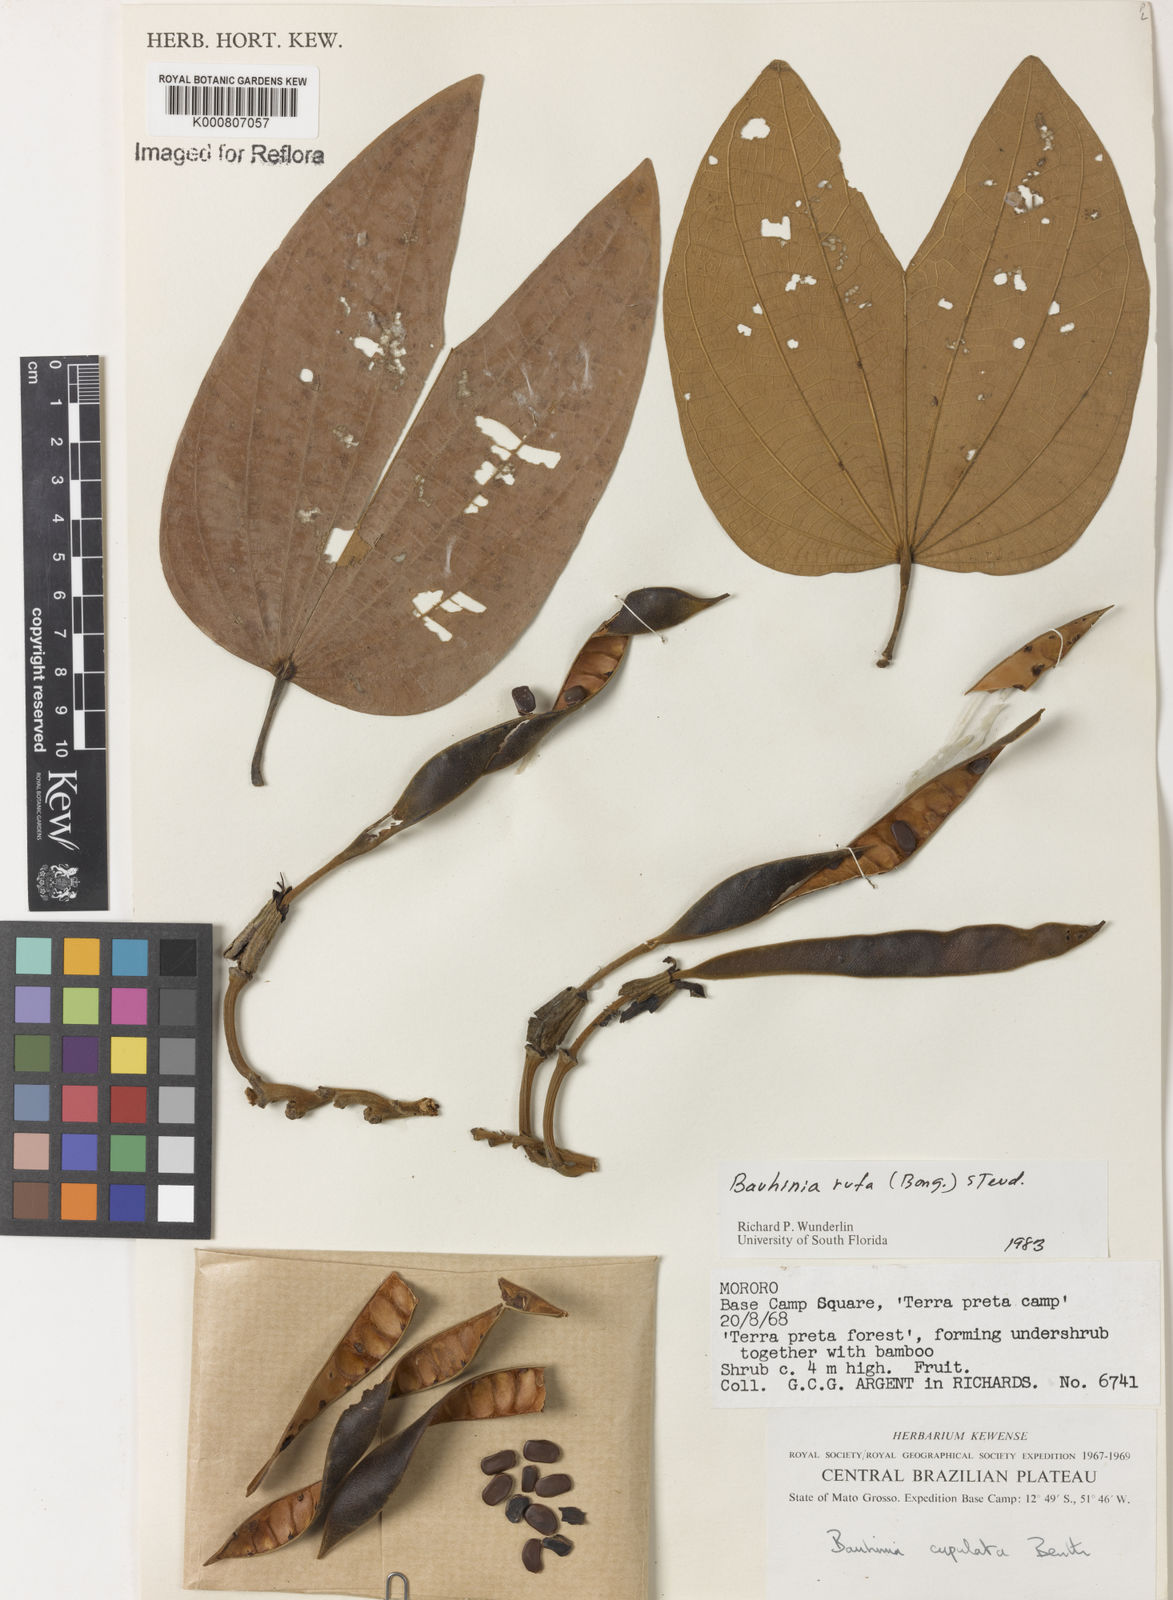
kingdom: Plantae
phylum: Tracheophyta
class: Magnoliopsida
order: Fabales
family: Fabaceae
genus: Bauhinia
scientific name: Bauhinia rufa
